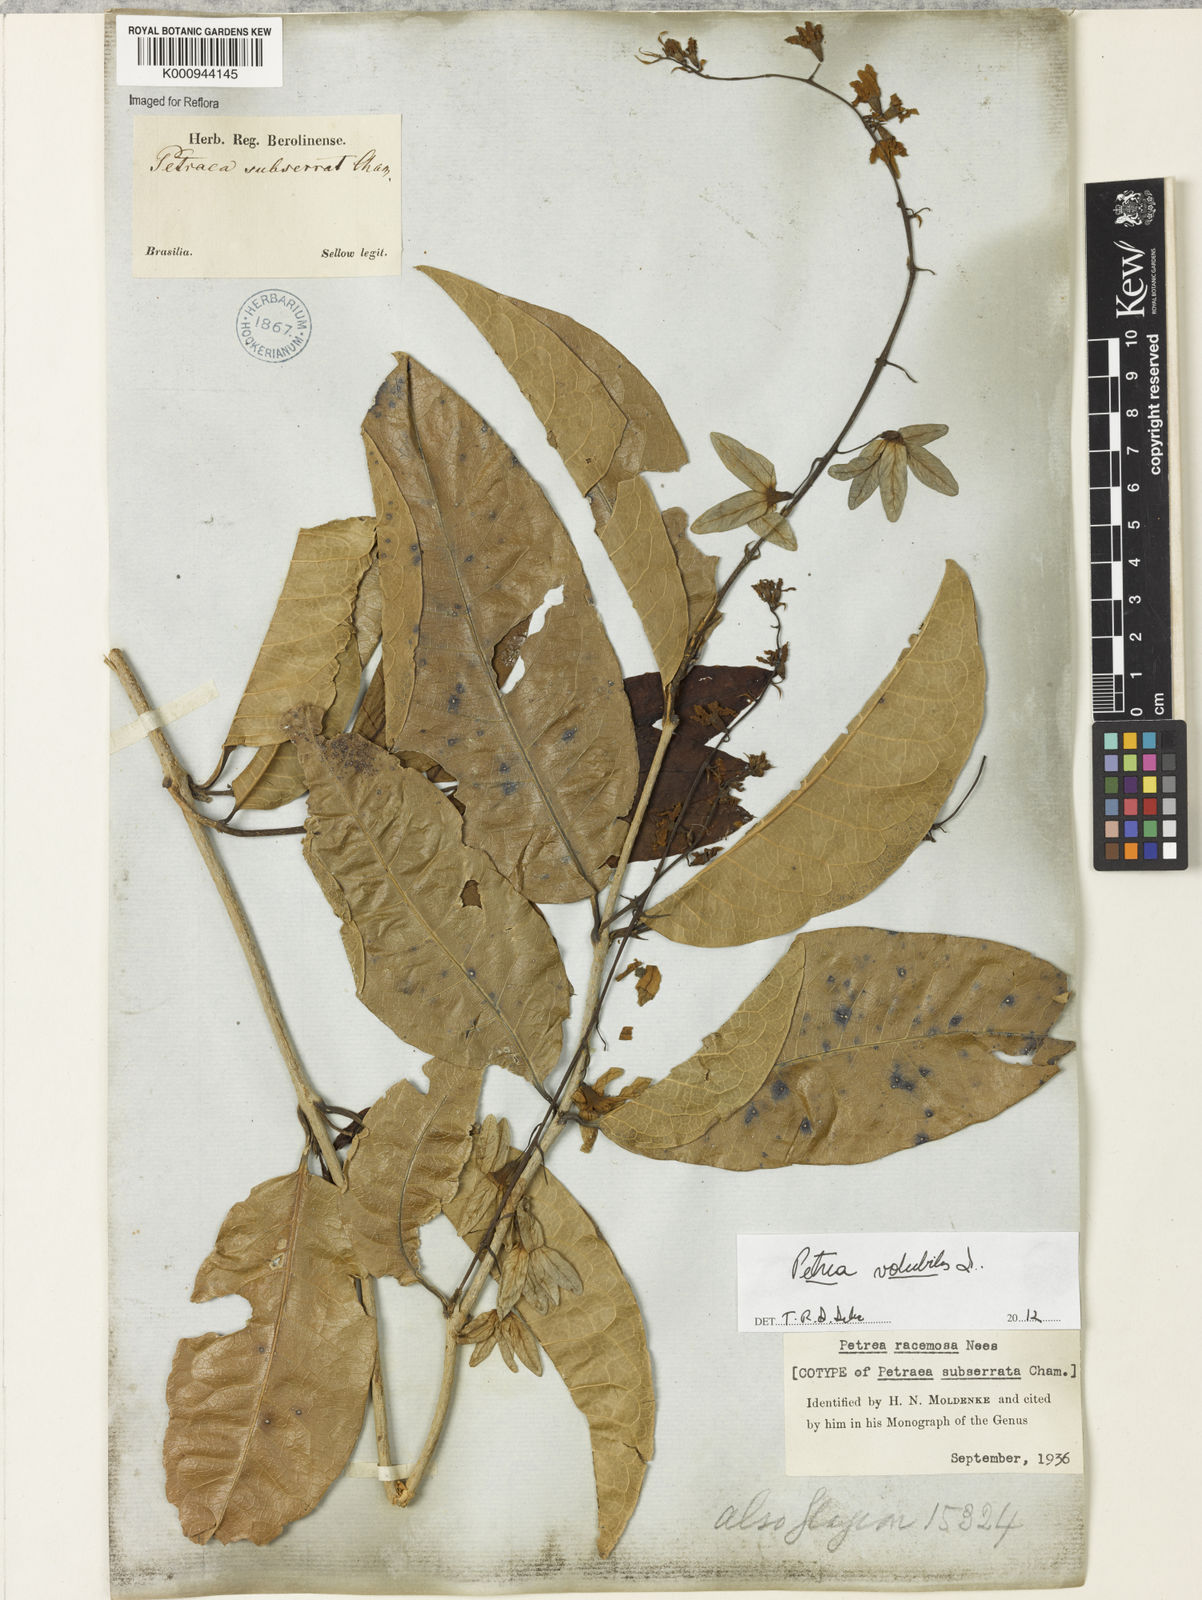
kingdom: Plantae
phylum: Tracheophyta
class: Magnoliopsida
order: Lamiales
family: Verbenaceae
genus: Petrea
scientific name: Petrea volubilis
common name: Queen's-wreath
